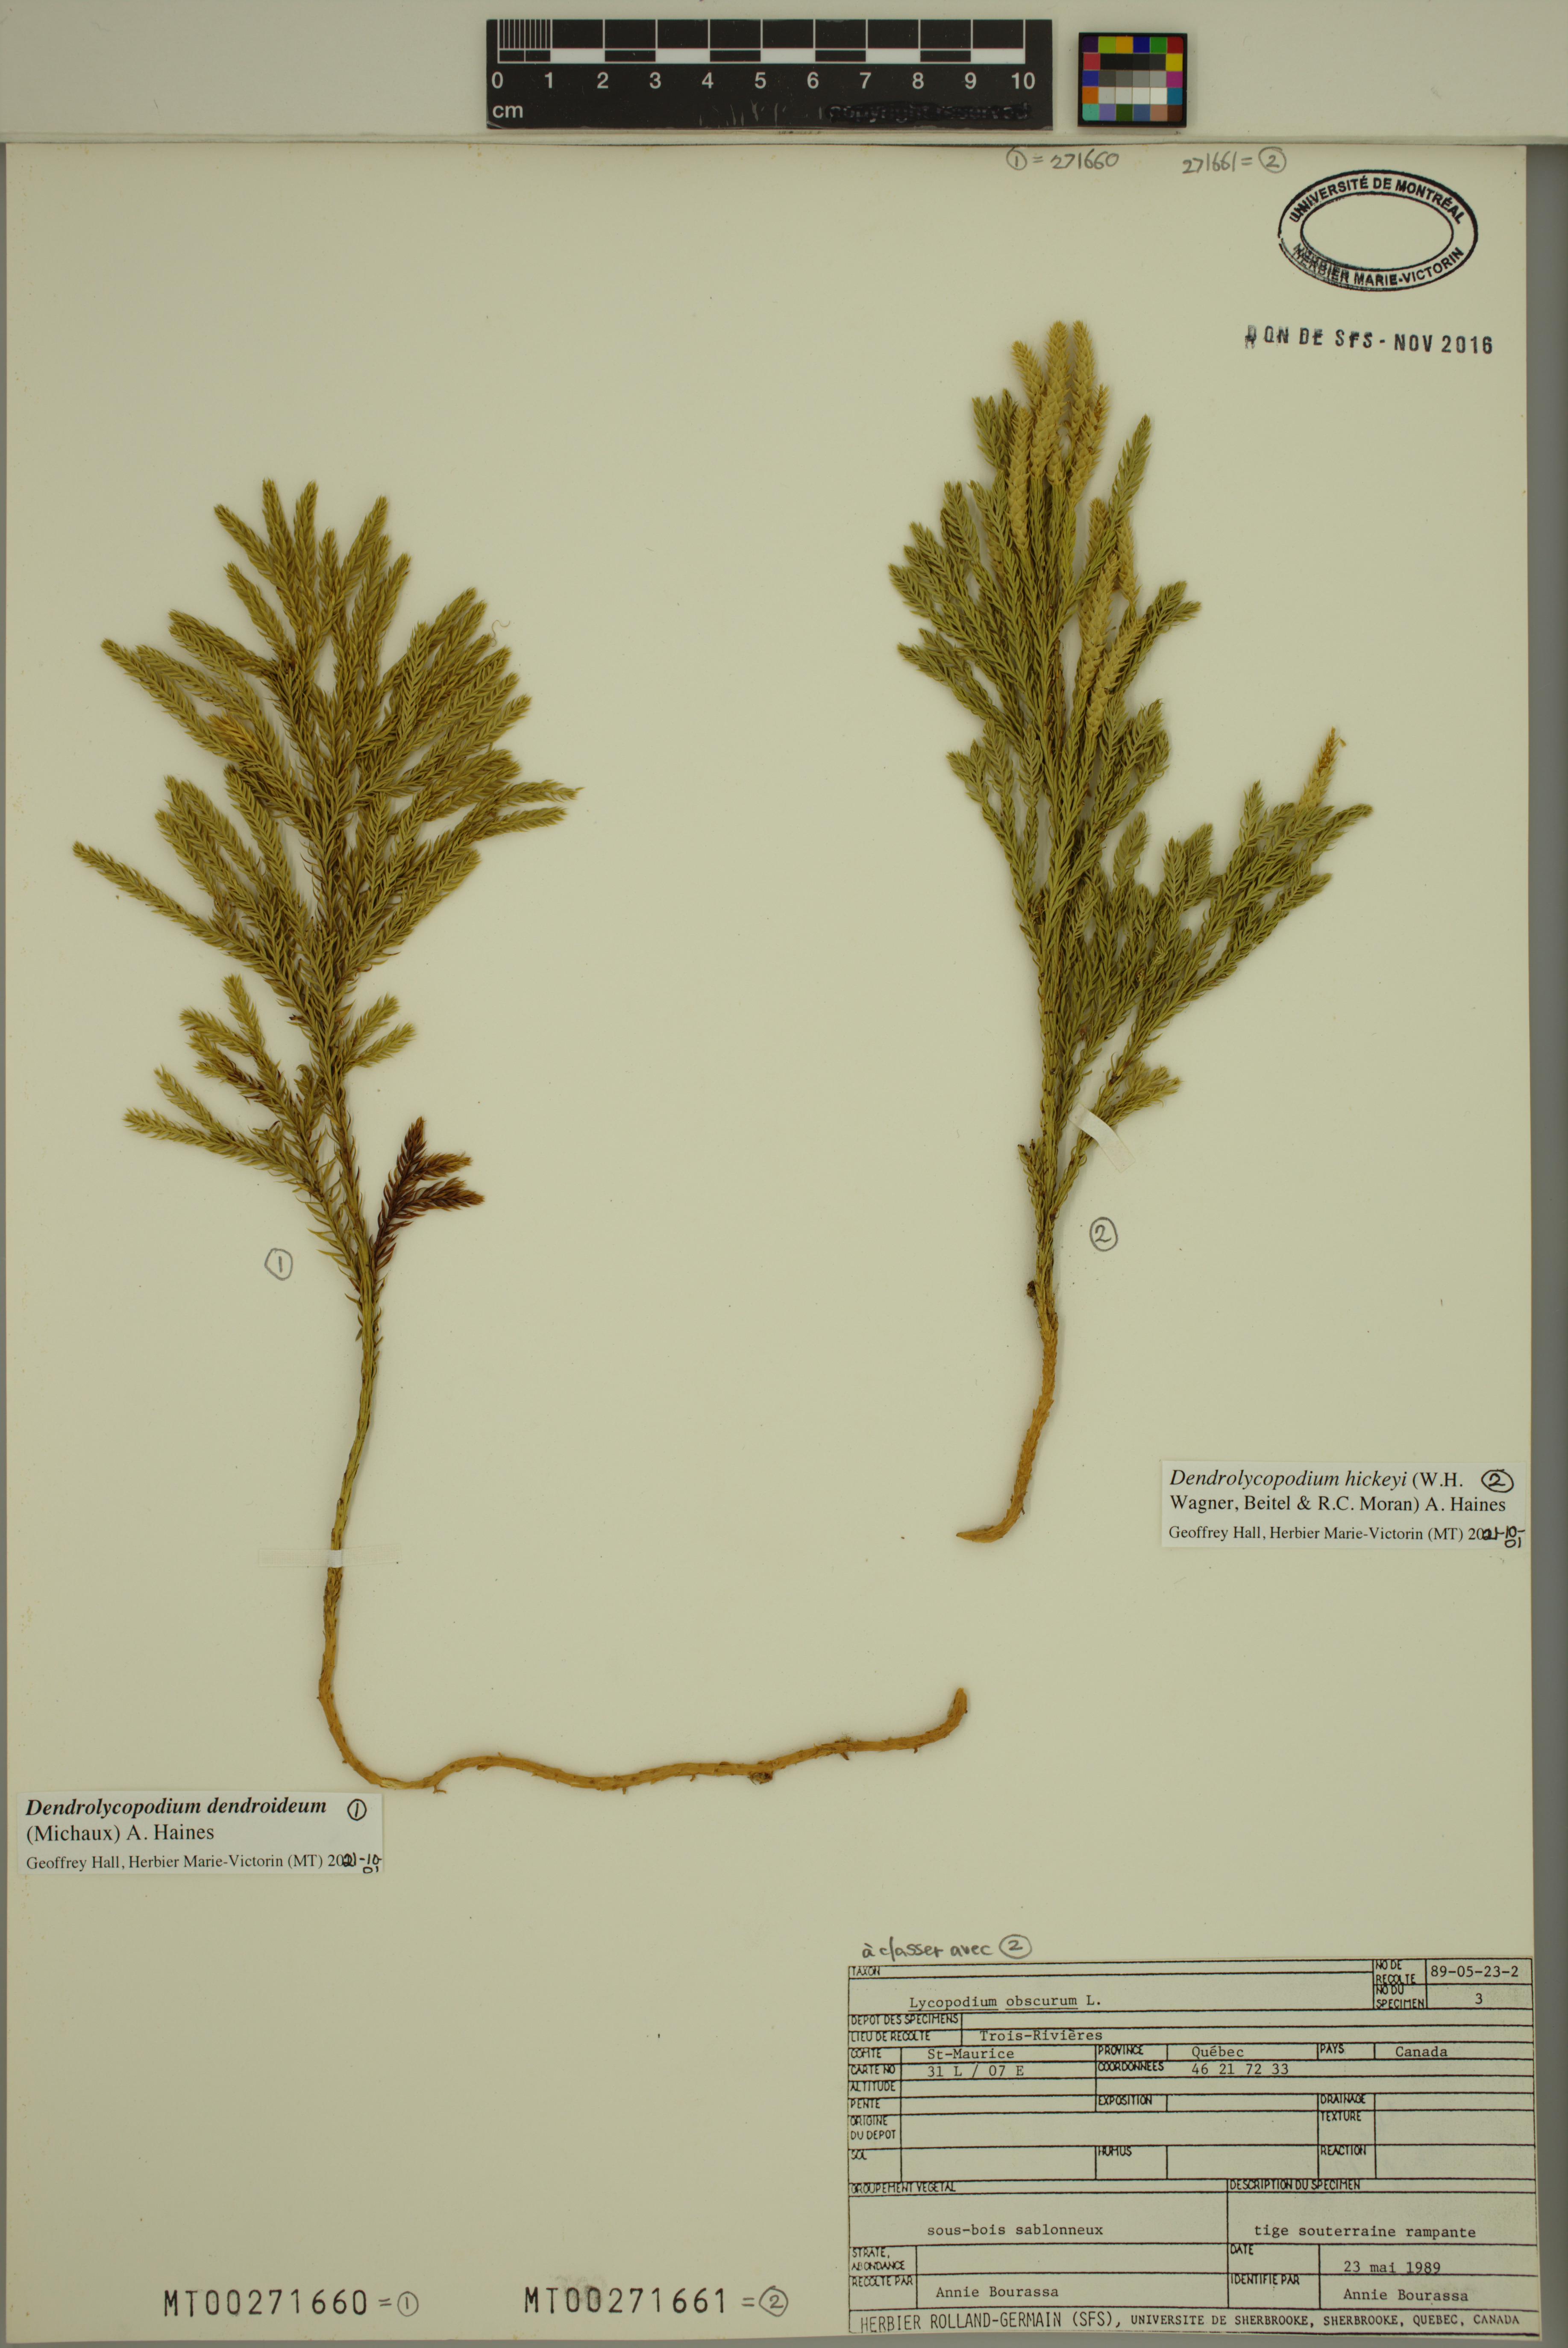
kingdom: Plantae
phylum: Tracheophyta
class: Lycopodiopsida
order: Lycopodiales
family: Lycopodiaceae
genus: Dendrolycopodium
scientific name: Dendrolycopodium dendroideum
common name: Northern tree-clubmoss
